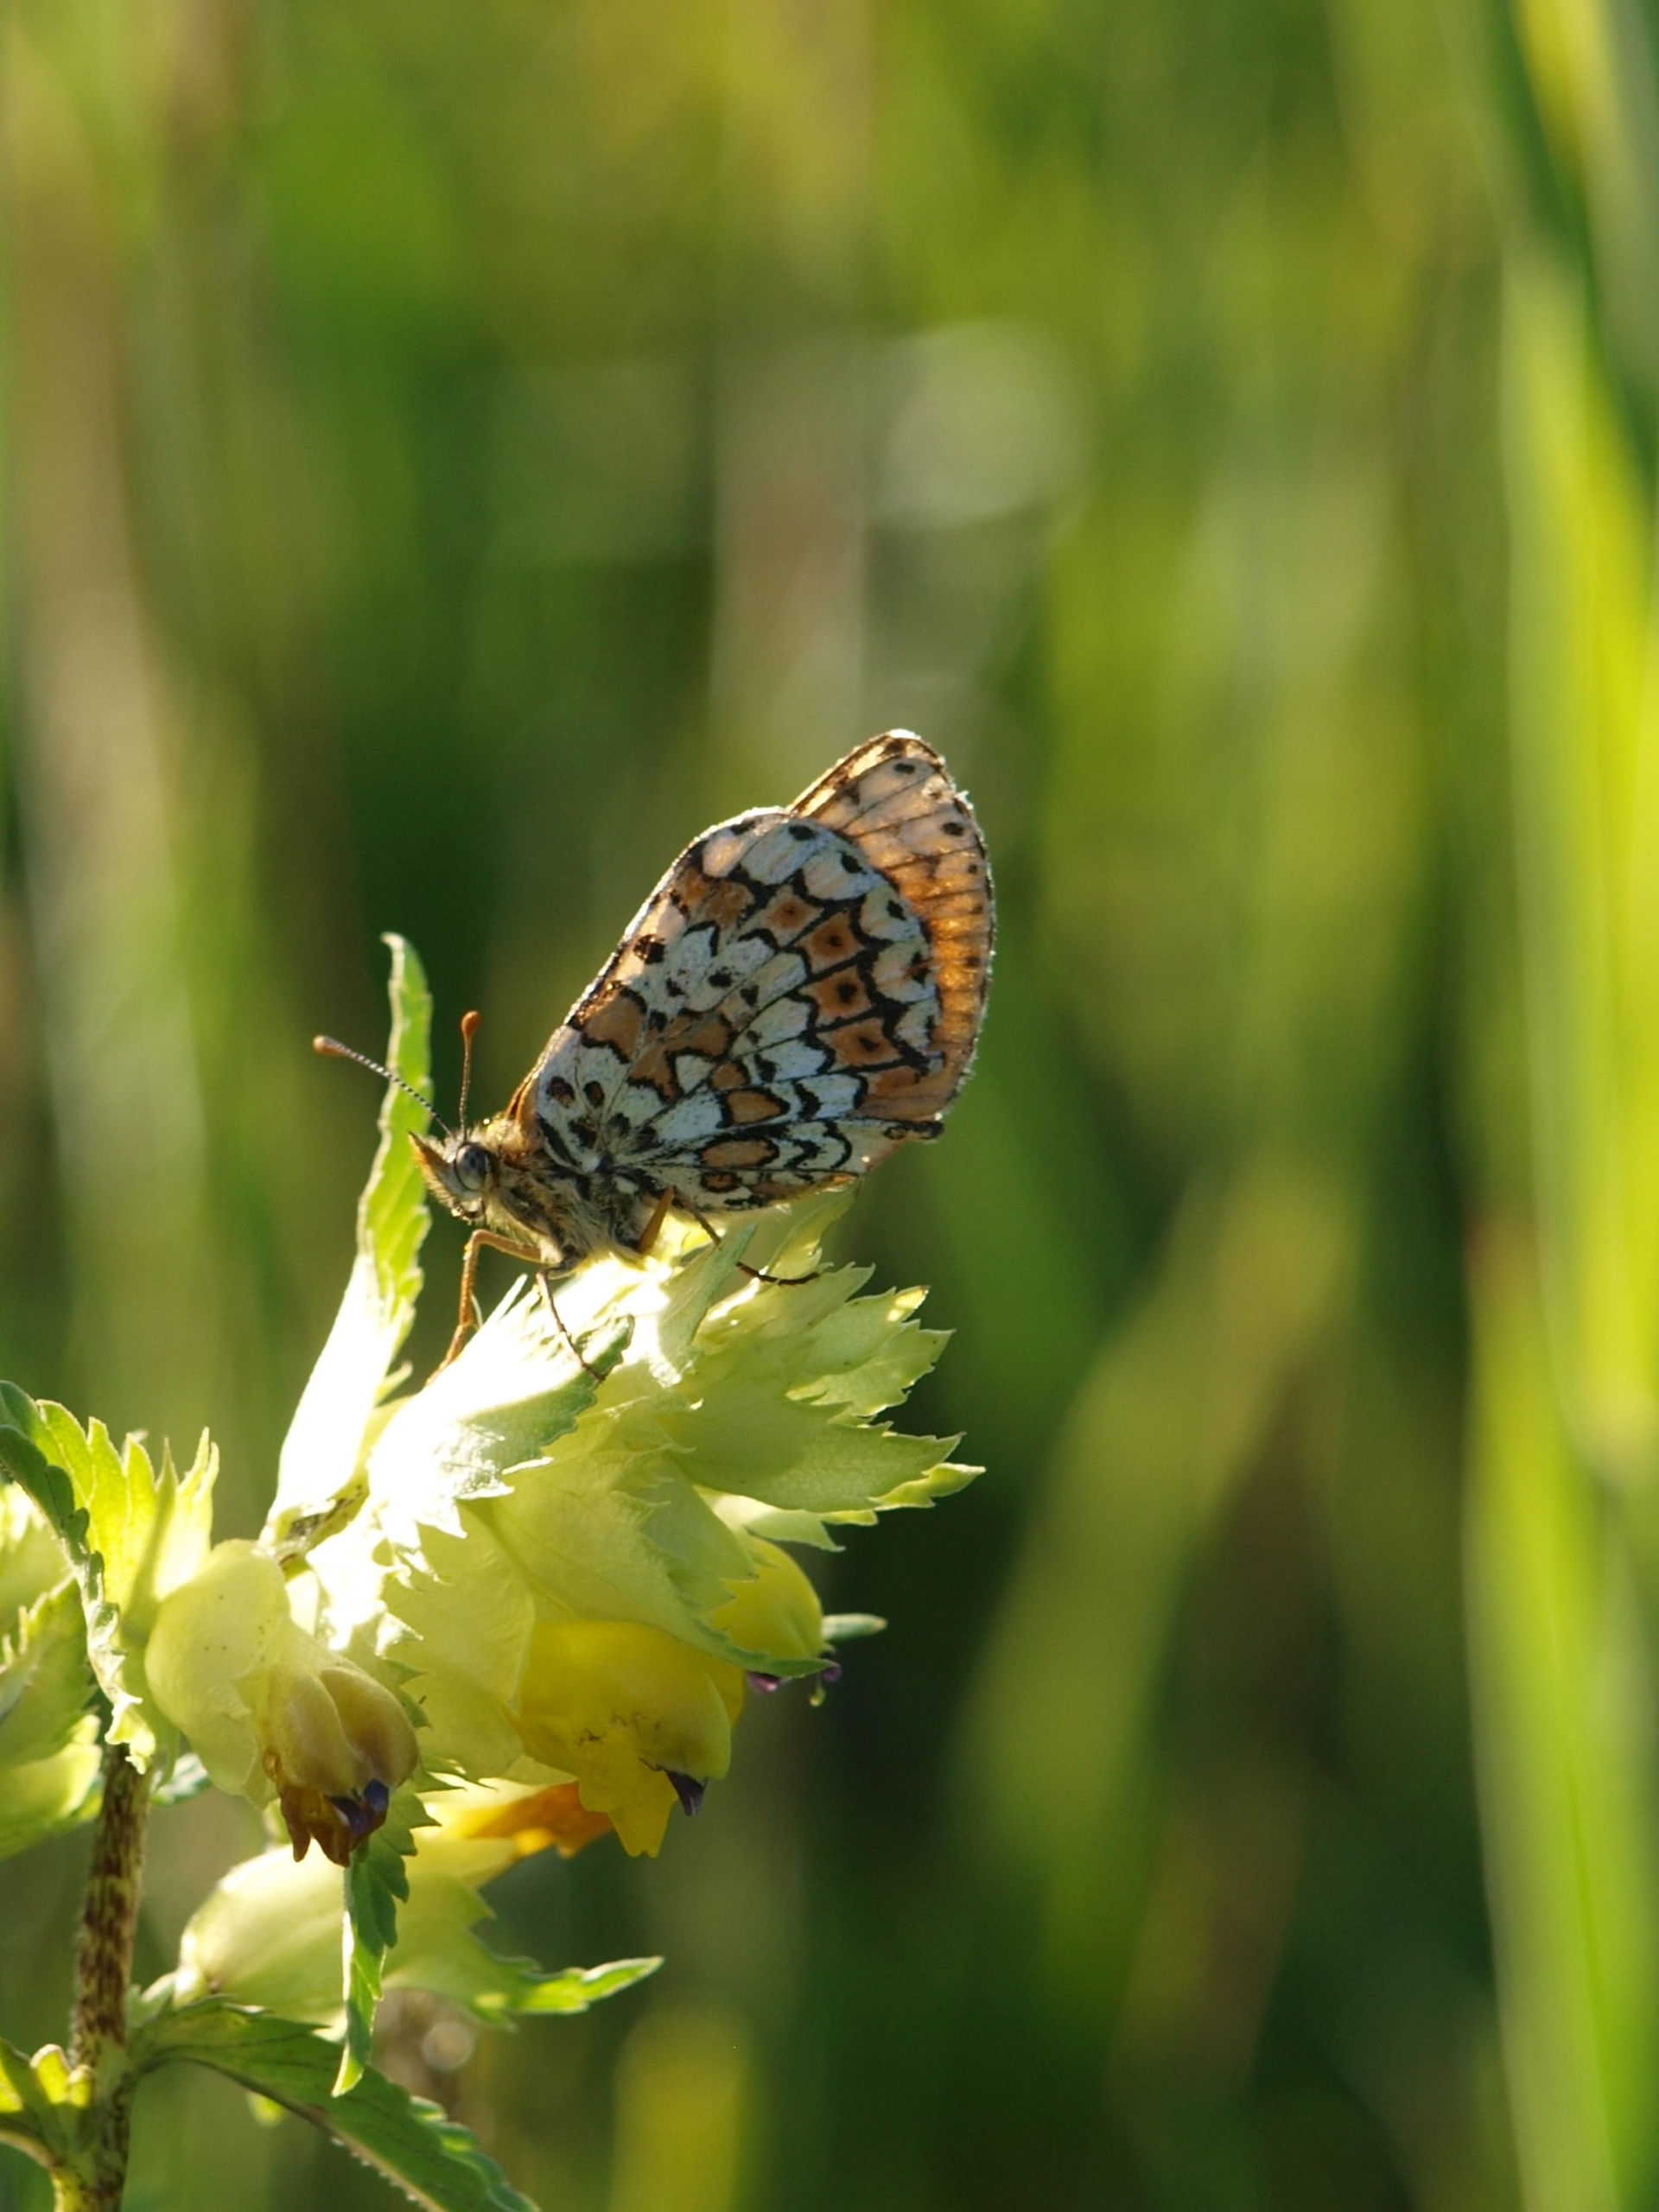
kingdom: Animalia
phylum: Arthropoda
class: Insecta
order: Lepidoptera
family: Nymphalidae
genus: Melitaea
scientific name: Melitaea cinxia
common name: Okkergul pletvinge
